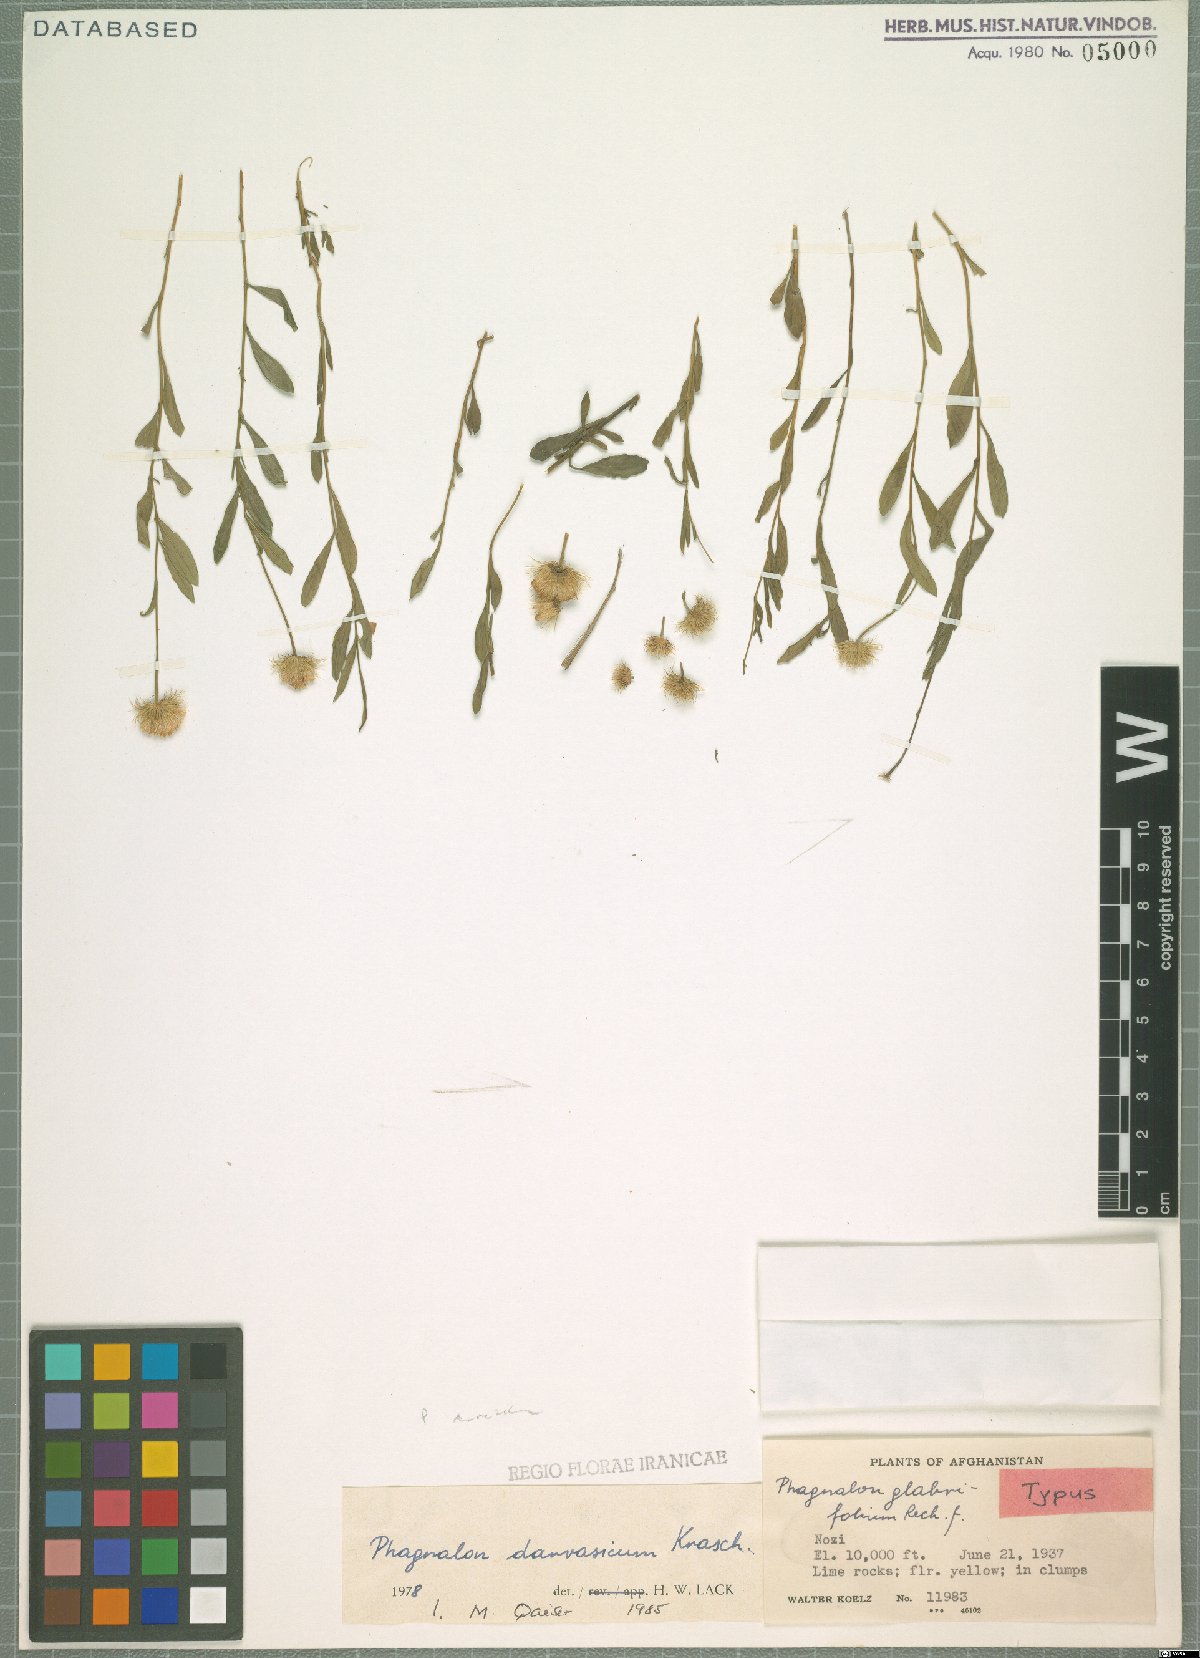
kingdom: Plantae
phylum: Tracheophyta
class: Magnoliopsida
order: Asterales
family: Asteraceae
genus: Phagnalon
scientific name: Phagnalon darvazicum
